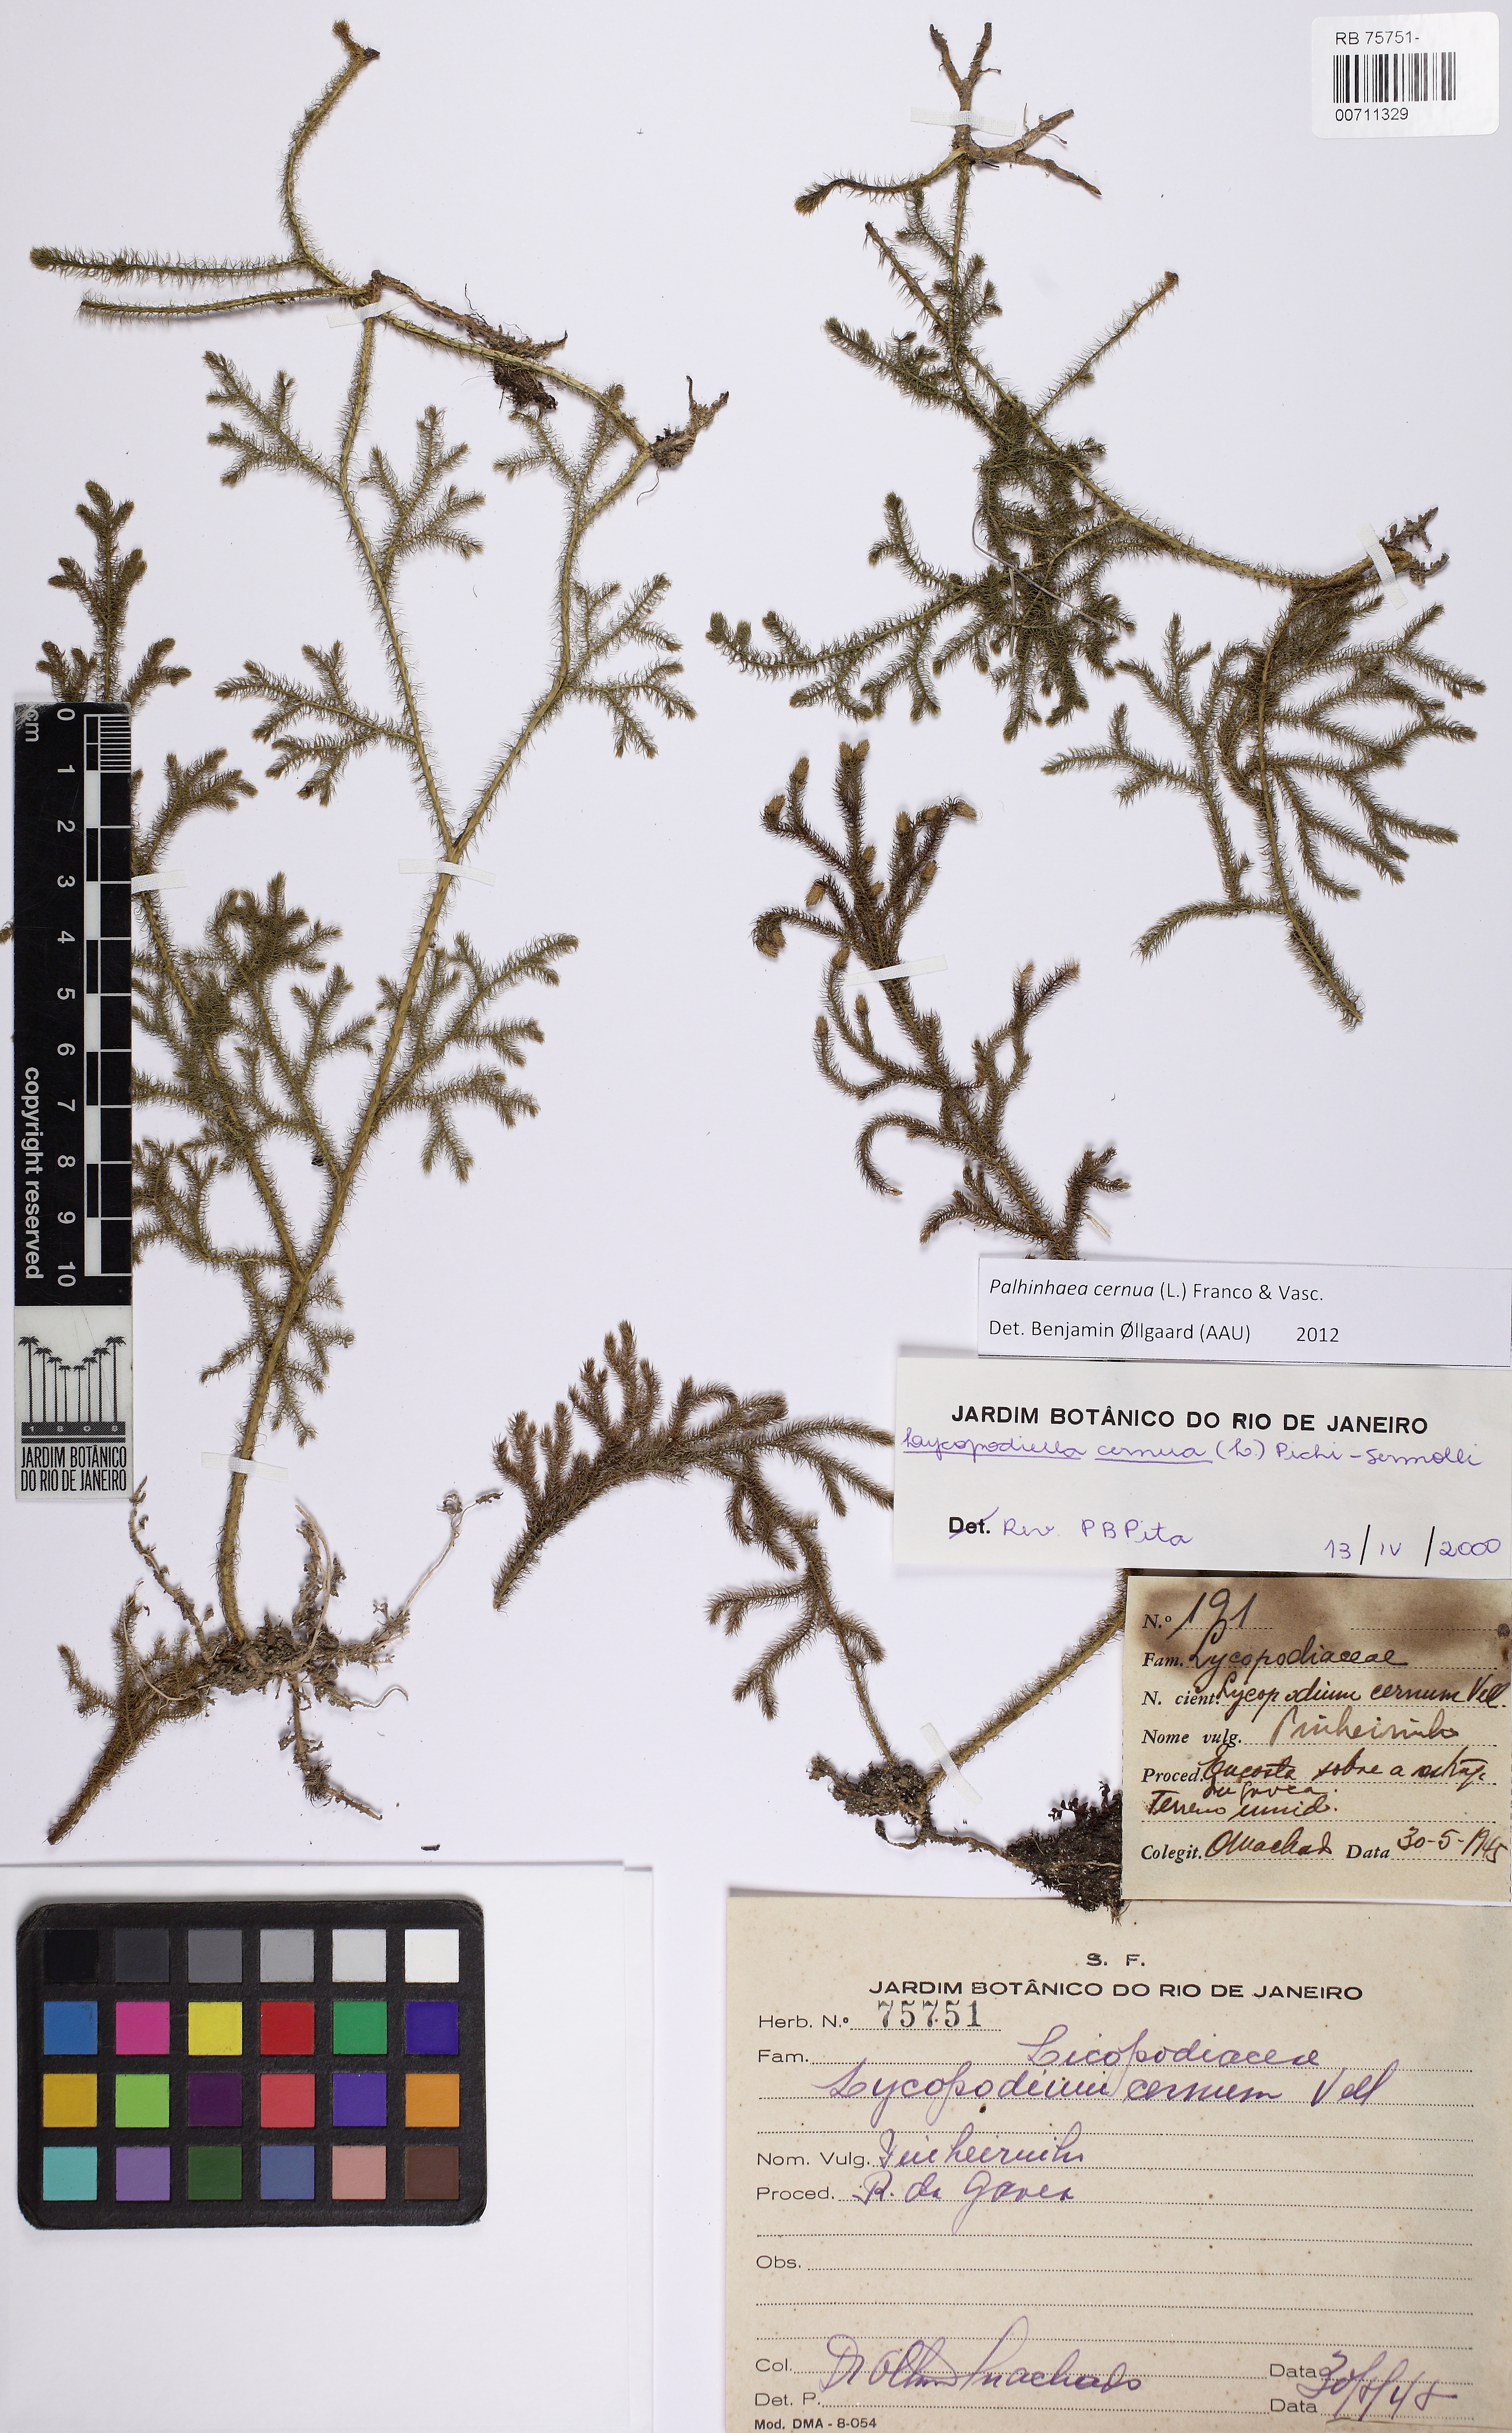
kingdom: Plantae
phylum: Tracheophyta
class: Lycopodiopsida
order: Lycopodiales
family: Lycopodiaceae
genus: Palhinhaea
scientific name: Palhinhaea cernua
